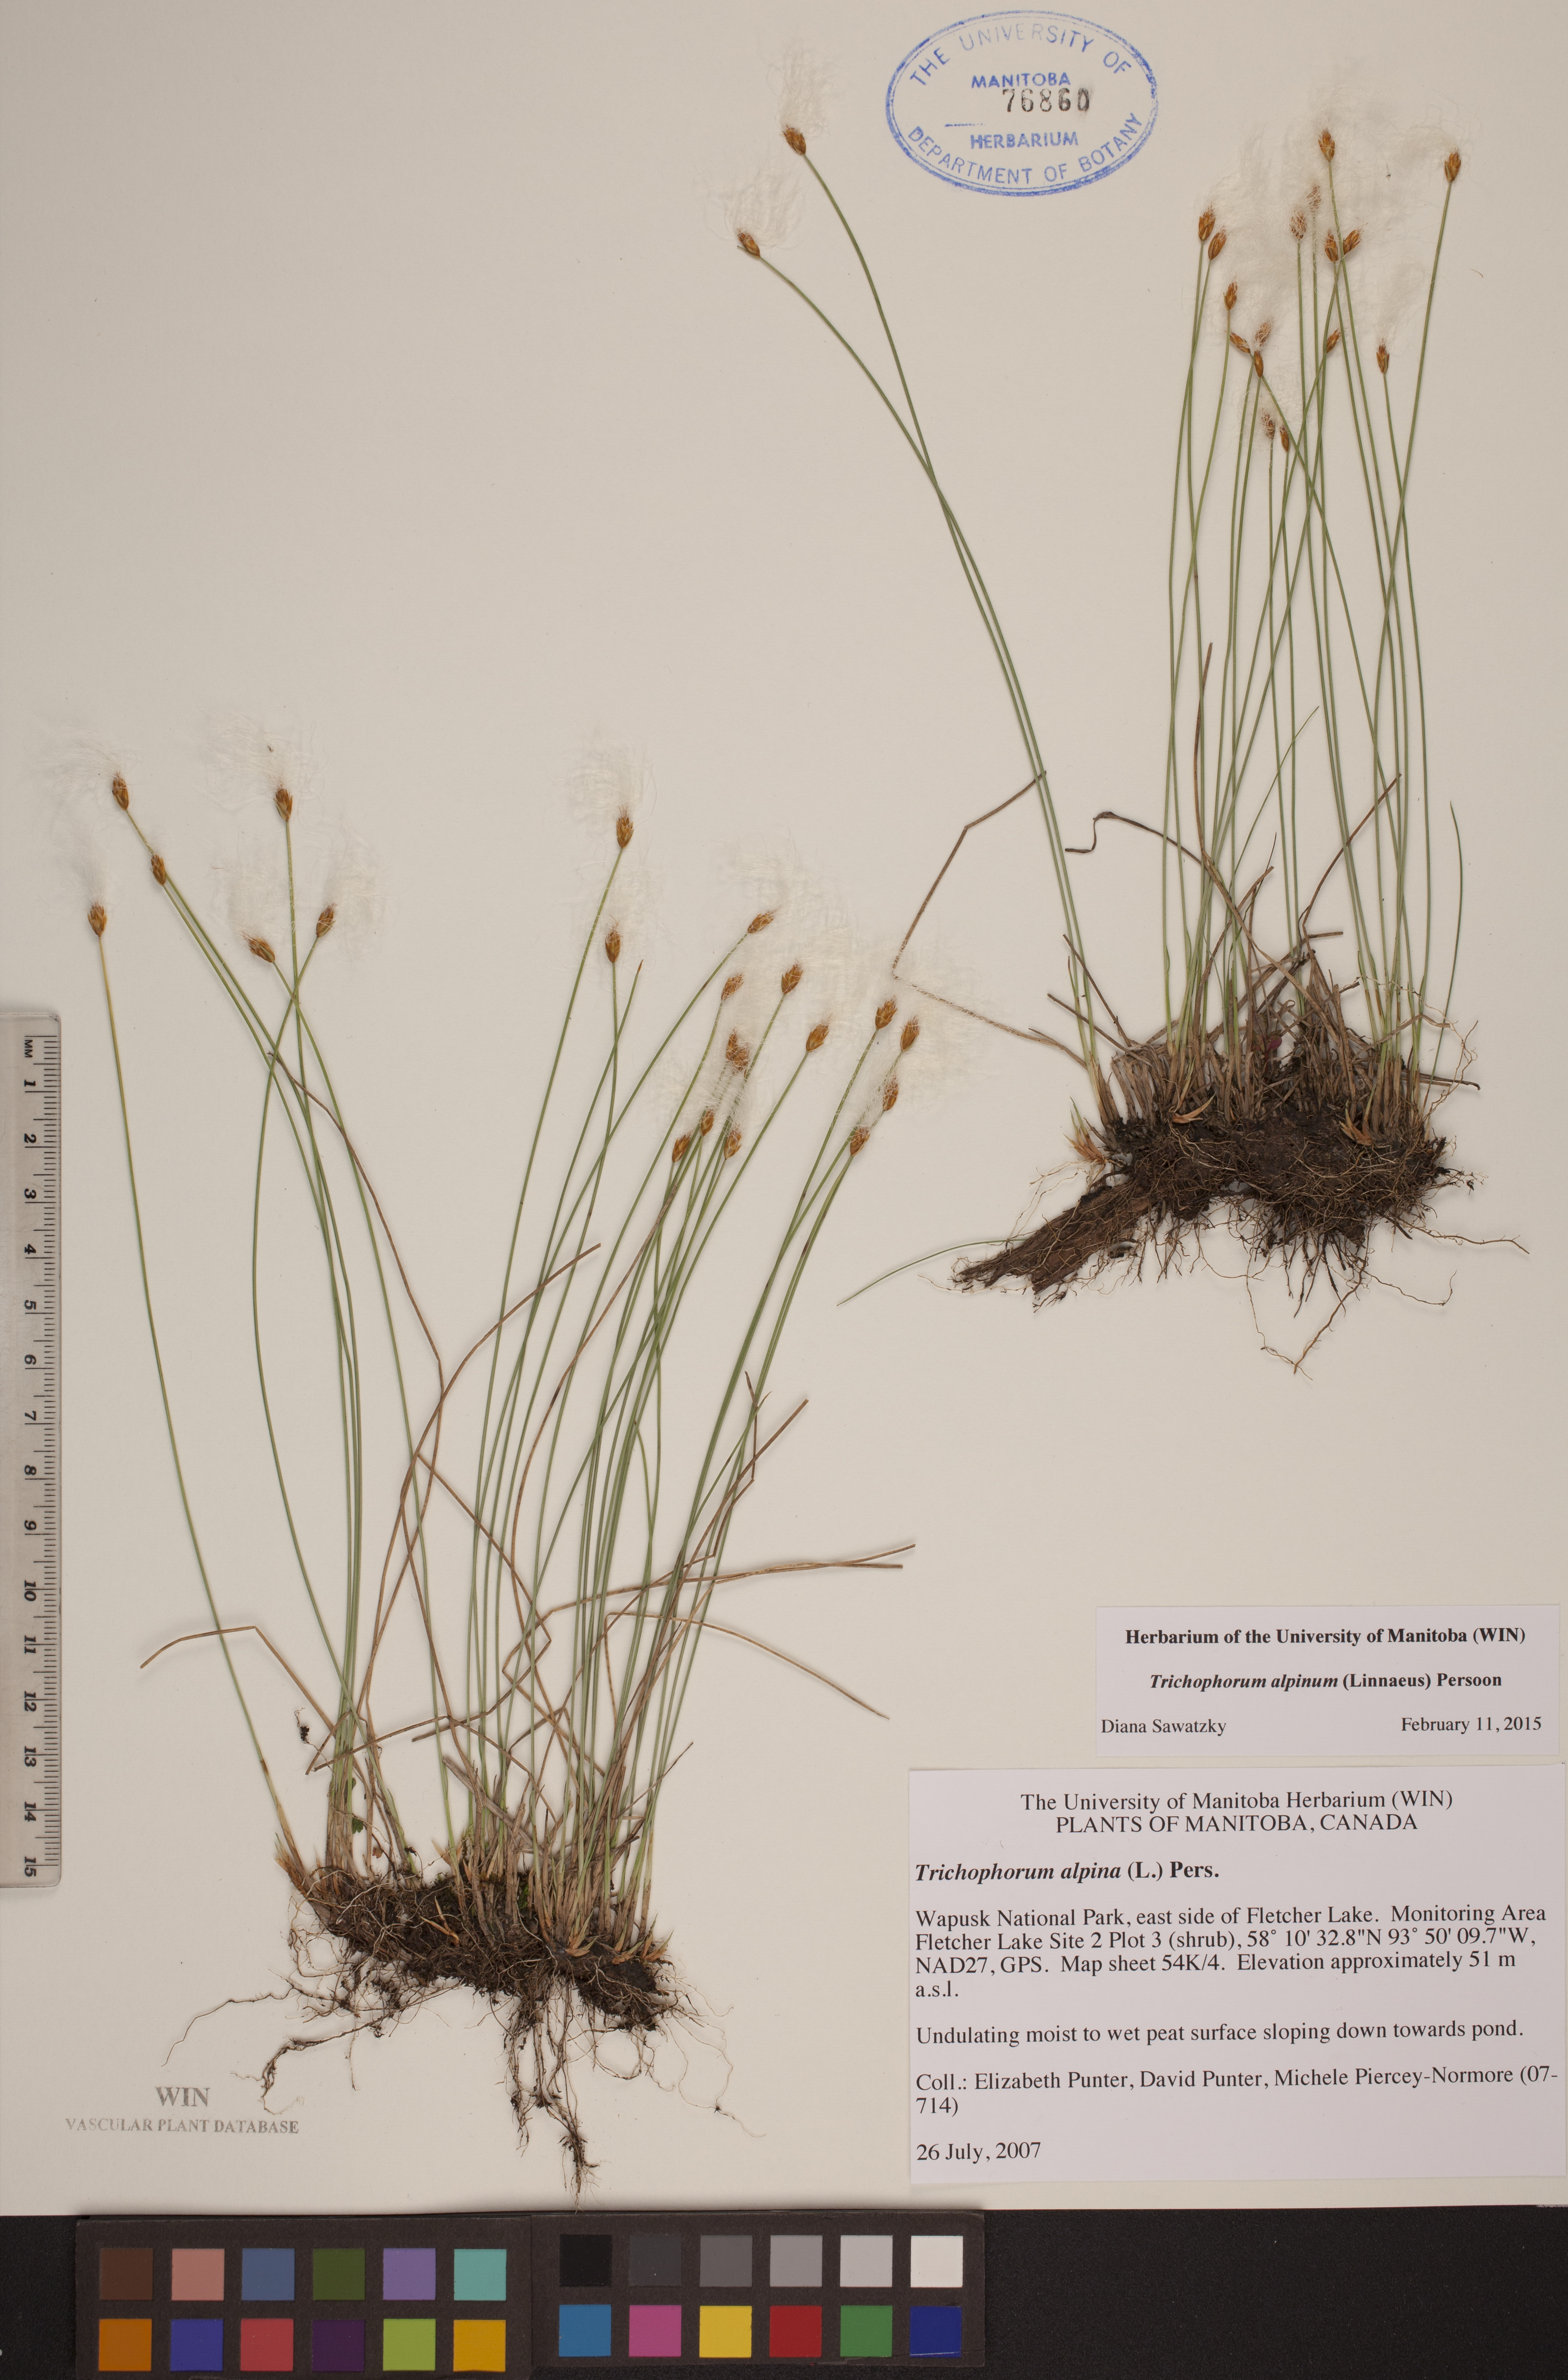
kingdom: Plantae
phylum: Tracheophyta
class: Liliopsida
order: Poales
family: Cyperaceae
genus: Trichophorum
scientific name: Trichophorum alpinum
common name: Alpine bulrush
